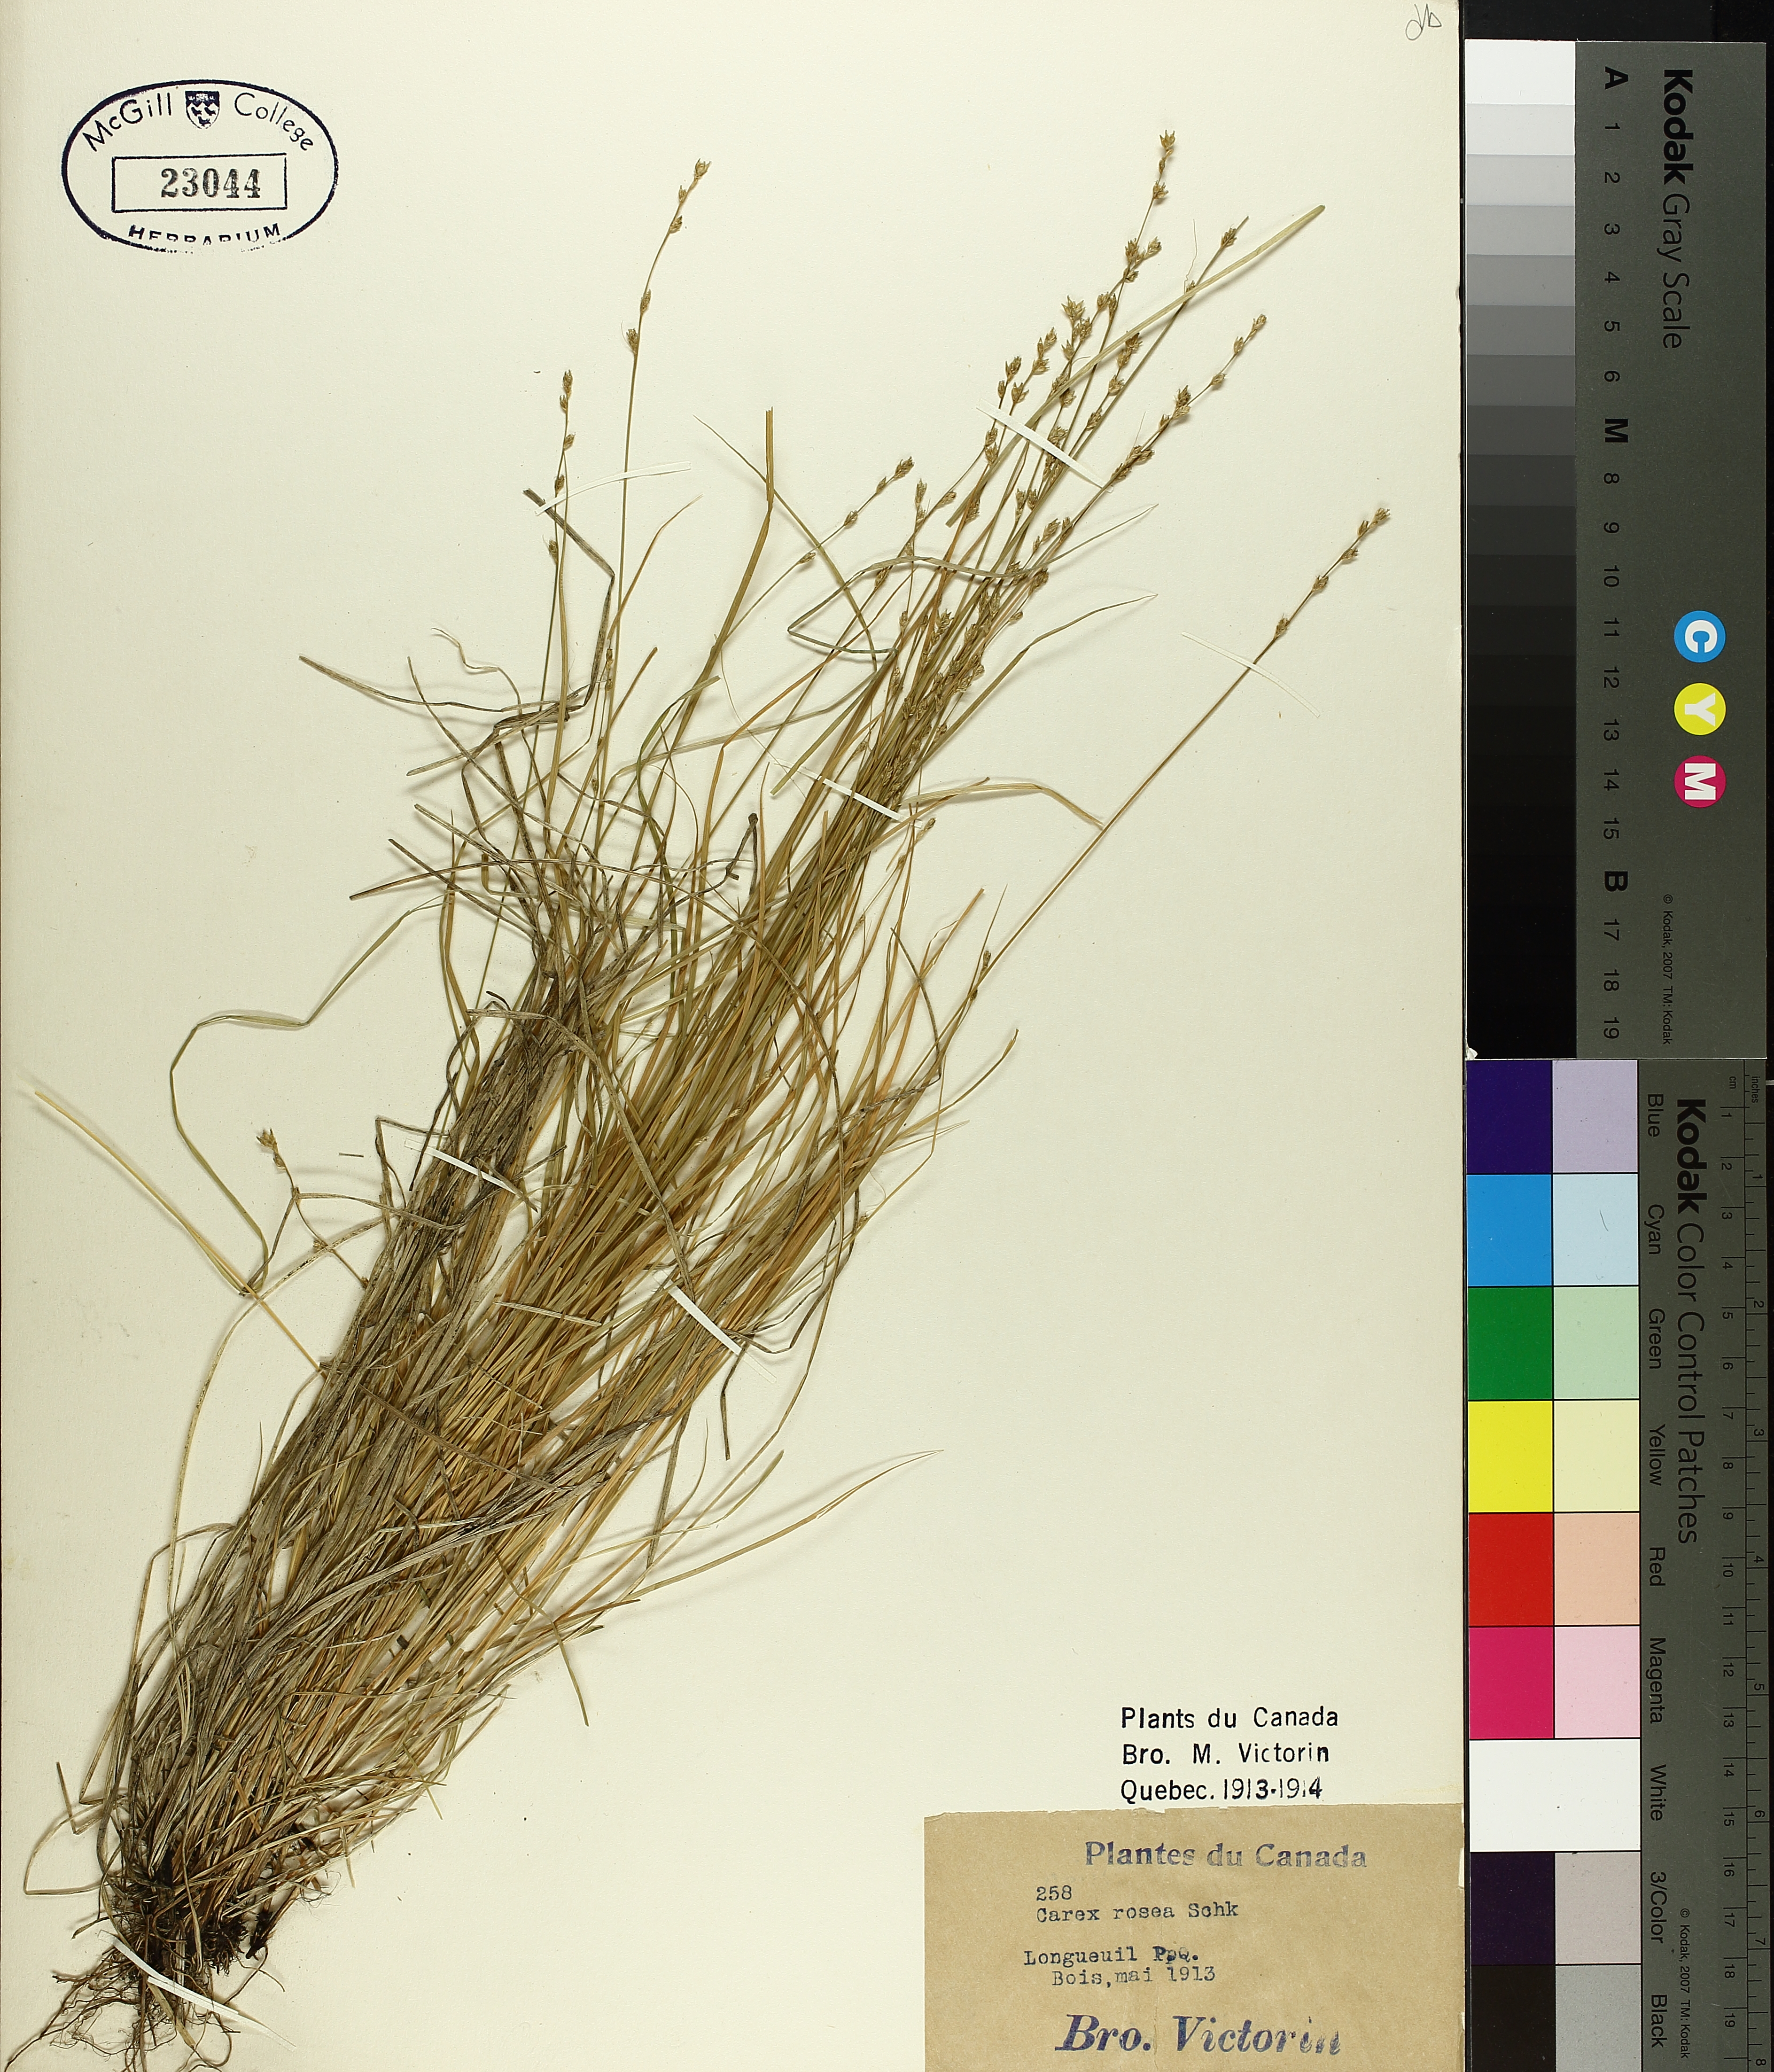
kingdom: Plantae
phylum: Tracheophyta
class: Liliopsida
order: Poales
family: Cyperaceae
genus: Carex
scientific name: Carex rosea
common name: Curly-styled wood sedge
